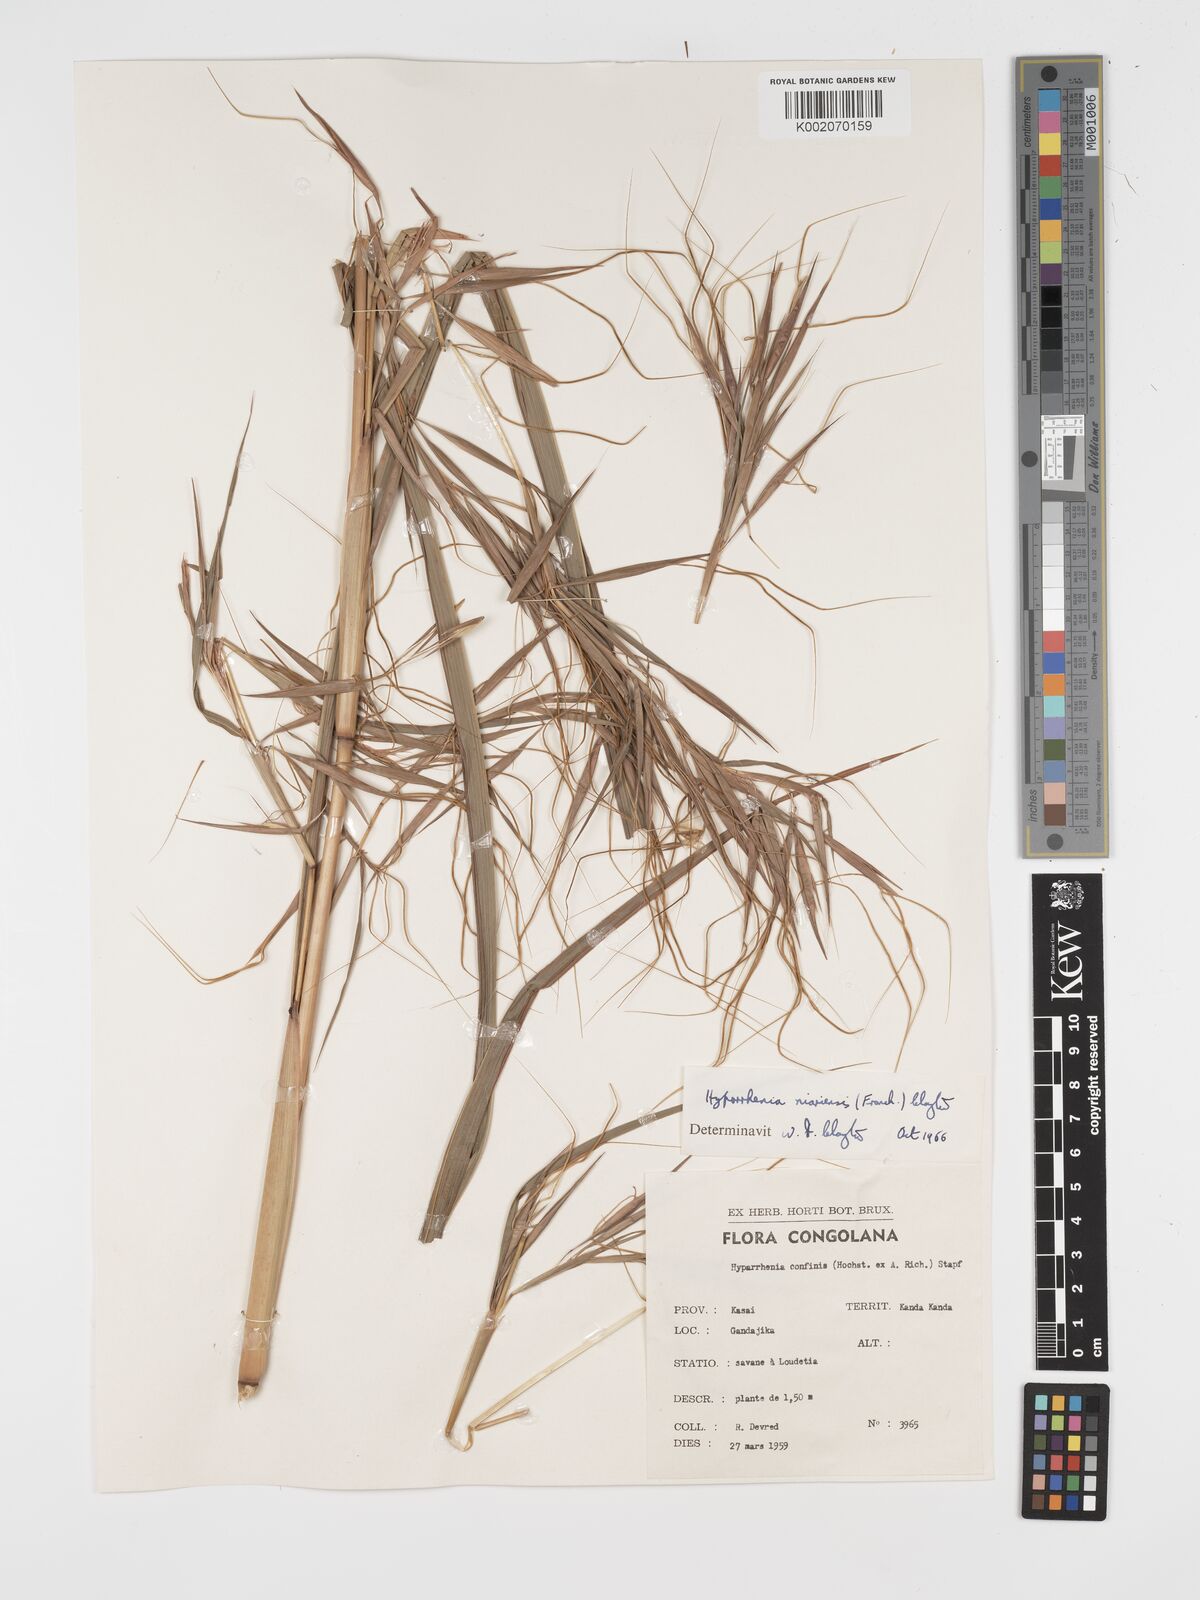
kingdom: Plantae
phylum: Tracheophyta
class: Liliopsida
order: Poales
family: Poaceae
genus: Hyparrhenia
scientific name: Hyparrhenia niariensis
